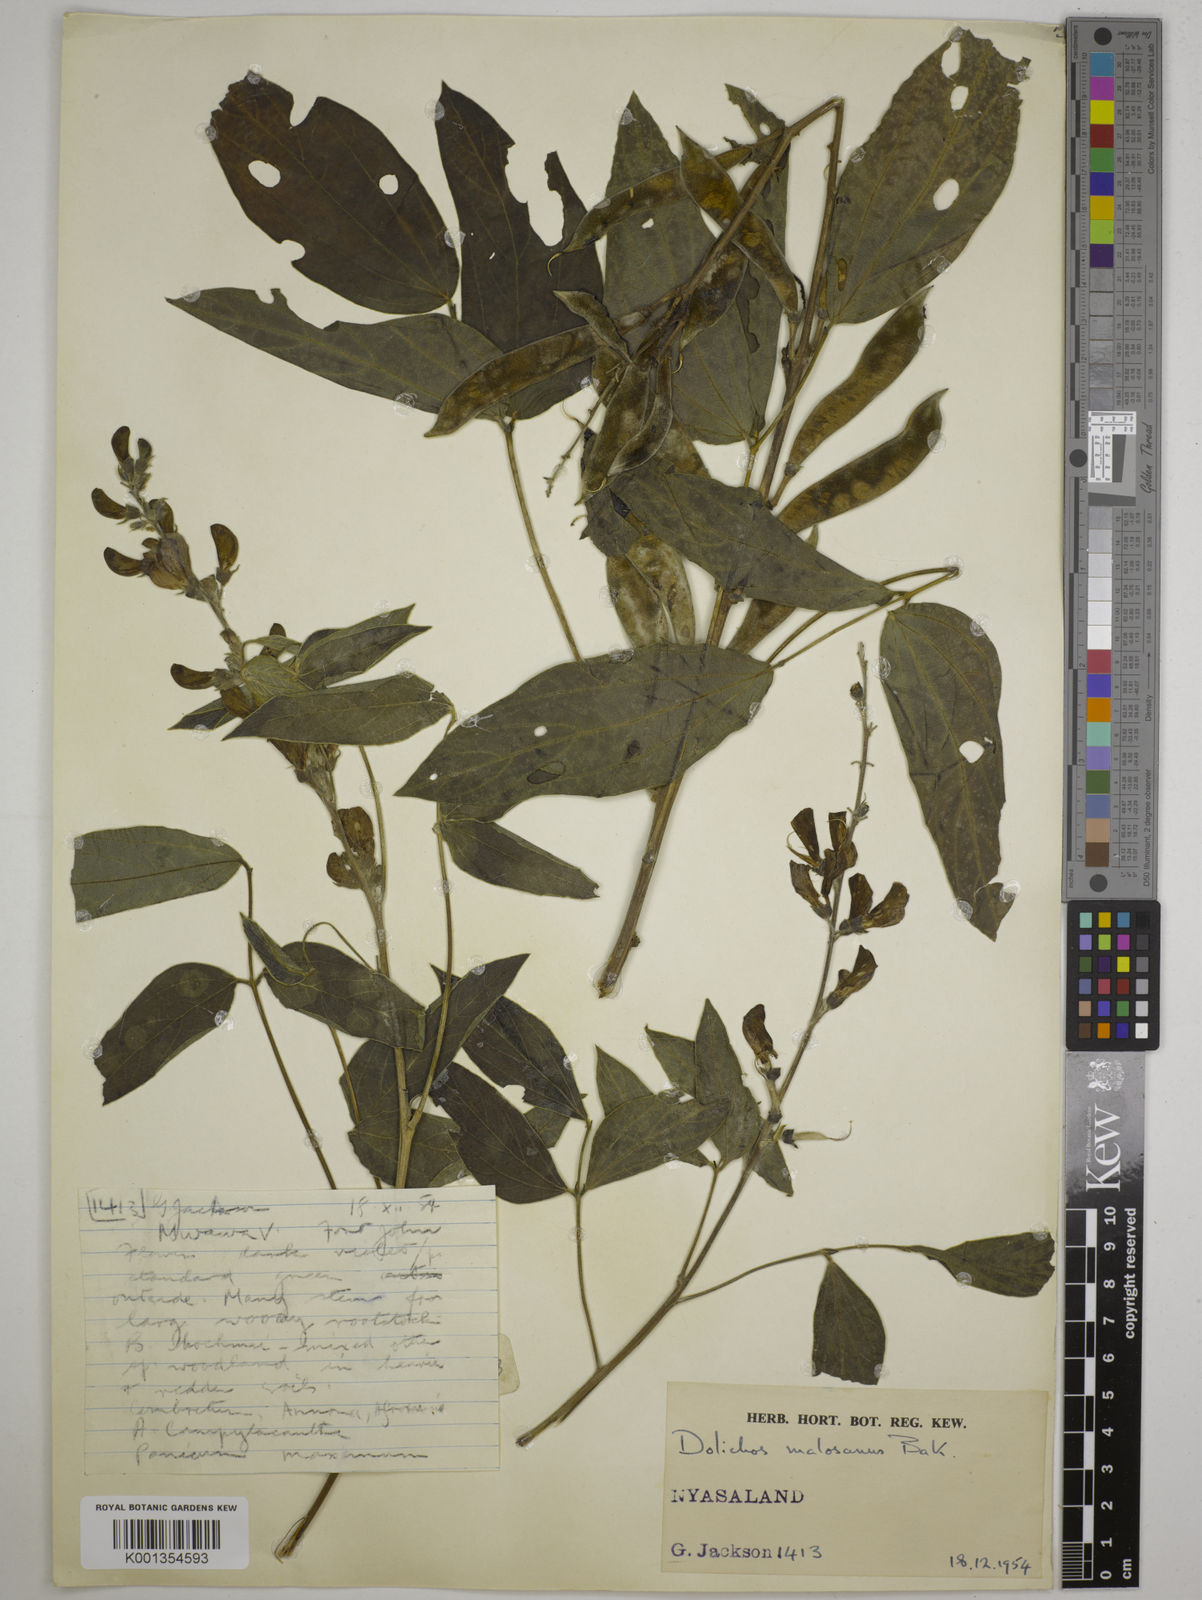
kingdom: Plantae
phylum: Tracheophyta
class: Magnoliopsida
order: Fabales
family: Fabaceae
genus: Dolichos
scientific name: Dolichos kilimandscharicus
